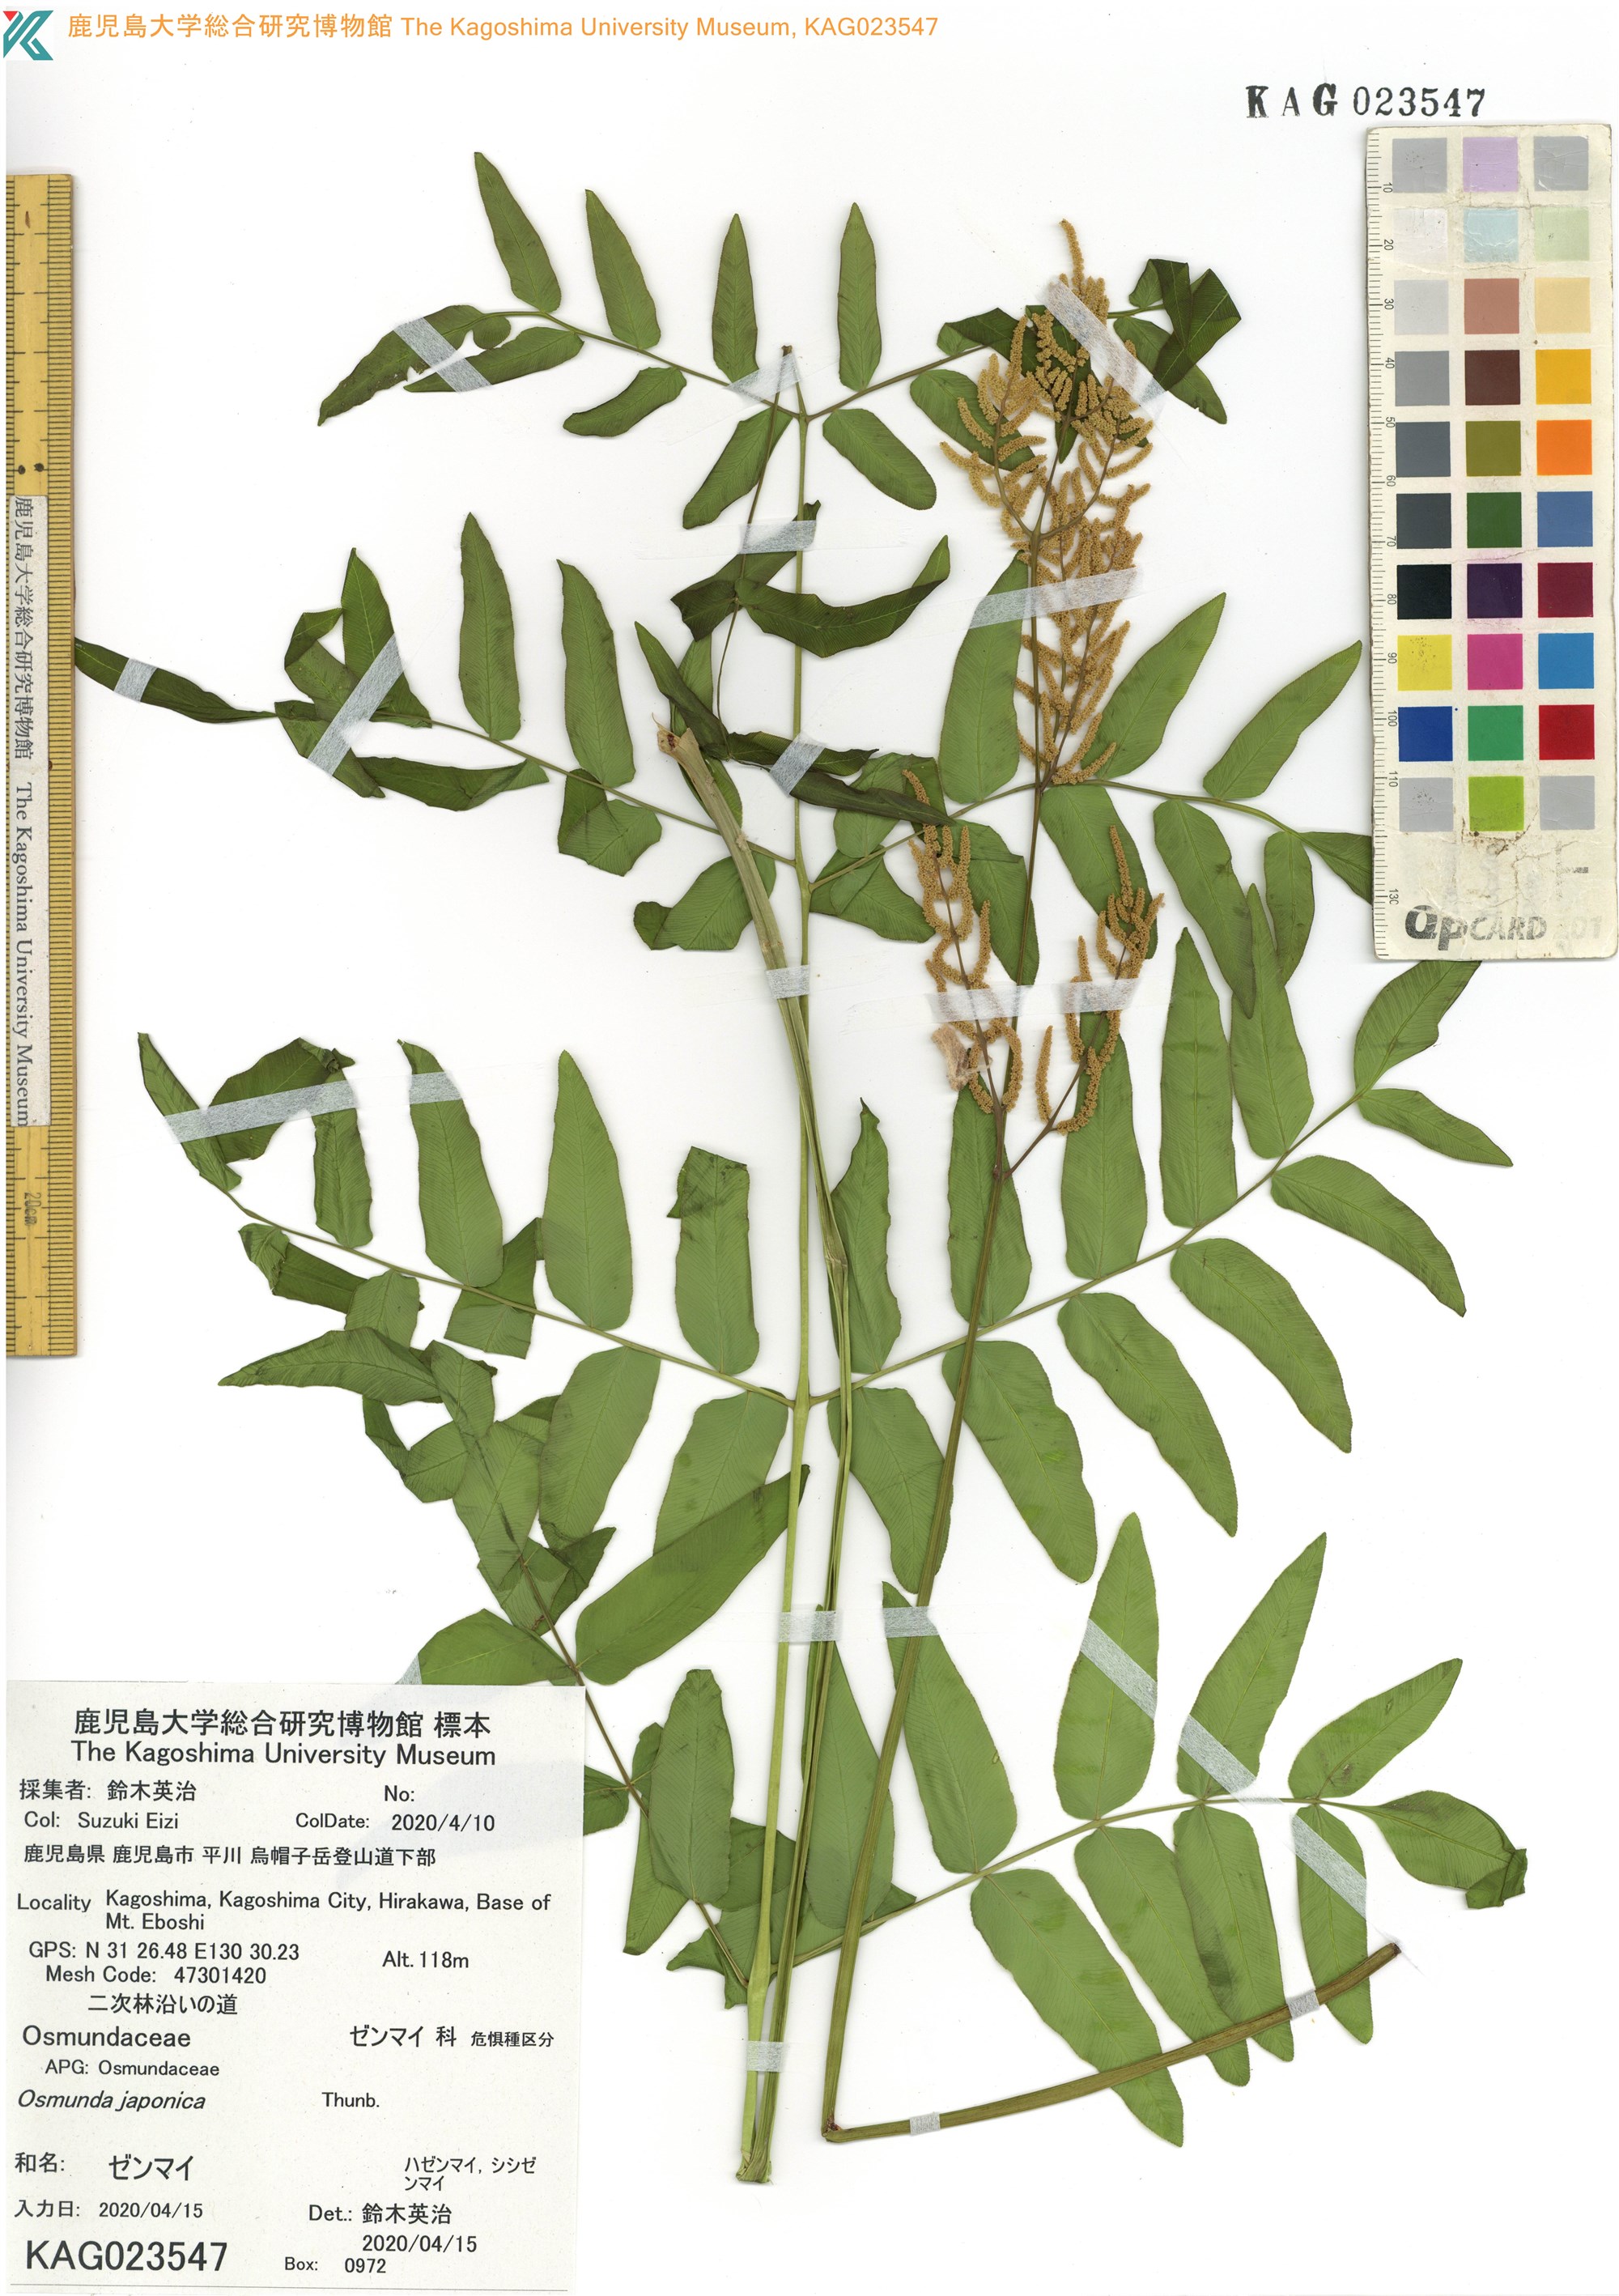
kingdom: Plantae
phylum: Tracheophyta
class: Polypodiopsida
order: Osmundales
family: Osmundaceae
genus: Osmunda
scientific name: Osmunda japonica
